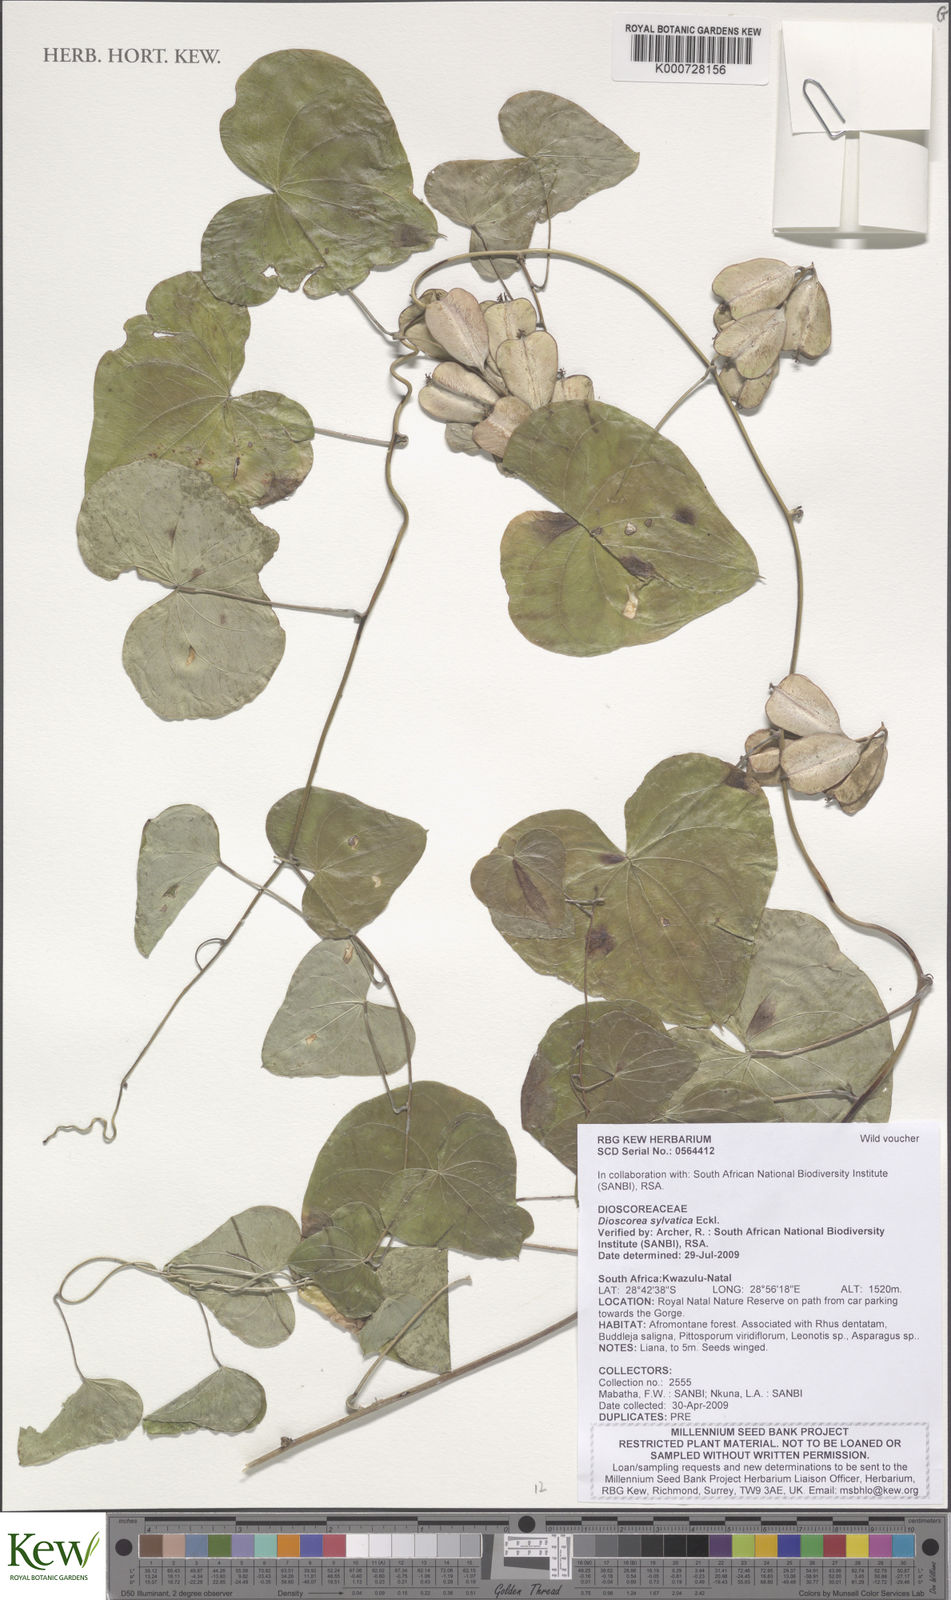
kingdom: Plantae
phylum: Tracheophyta
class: Liliopsida
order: Dioscoreales
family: Dioscoreaceae
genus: Dioscorea
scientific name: Dioscorea sylvatica
